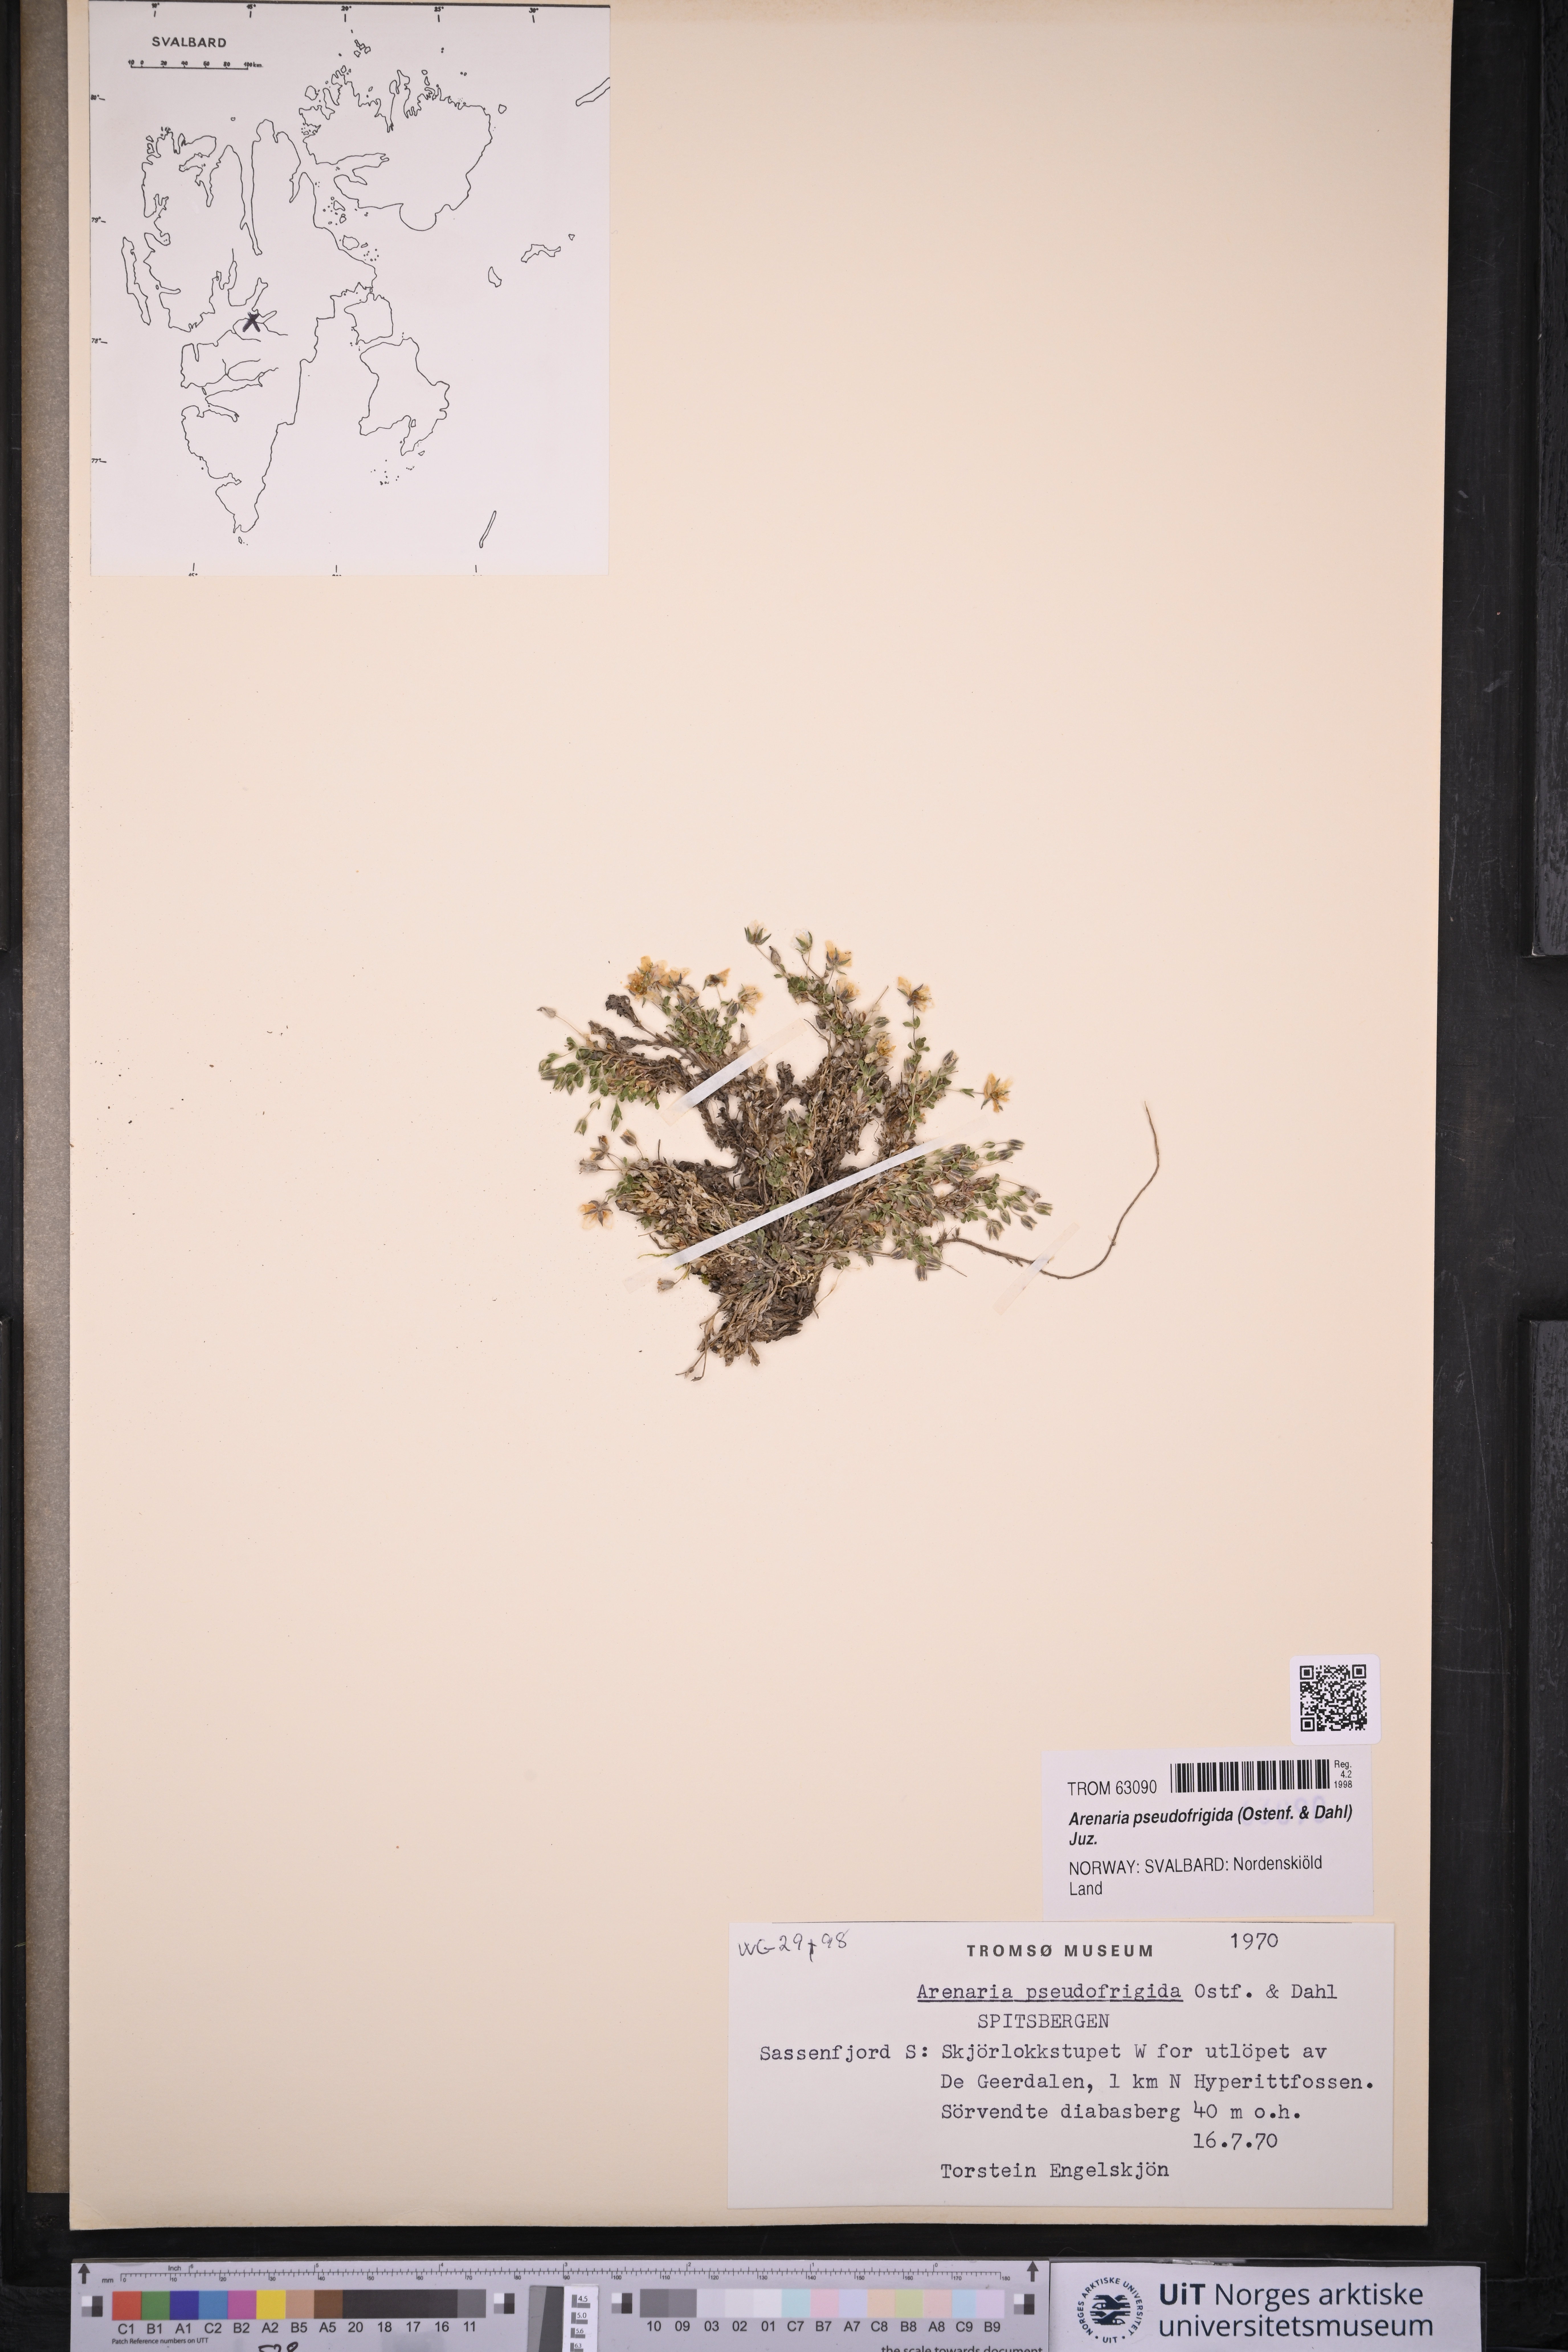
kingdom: Plantae
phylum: Tracheophyta
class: Magnoliopsida
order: Caryophyllales
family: Caryophyllaceae
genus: Arenaria
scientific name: Arenaria pseudofrigida
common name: Tundra sandwort
